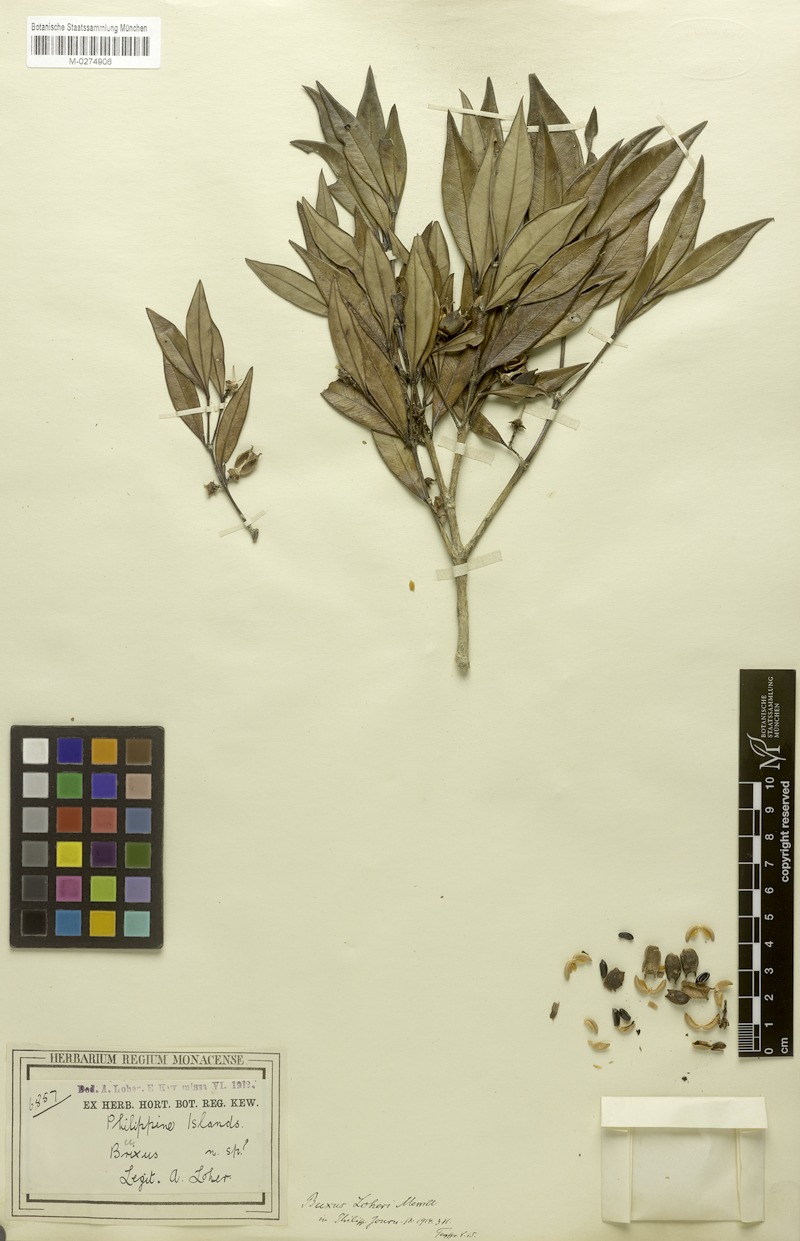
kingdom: Plantae
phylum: Tracheophyta
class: Magnoliopsida
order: Buxales
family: Buxaceae
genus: Buxus
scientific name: Buxus loheri
